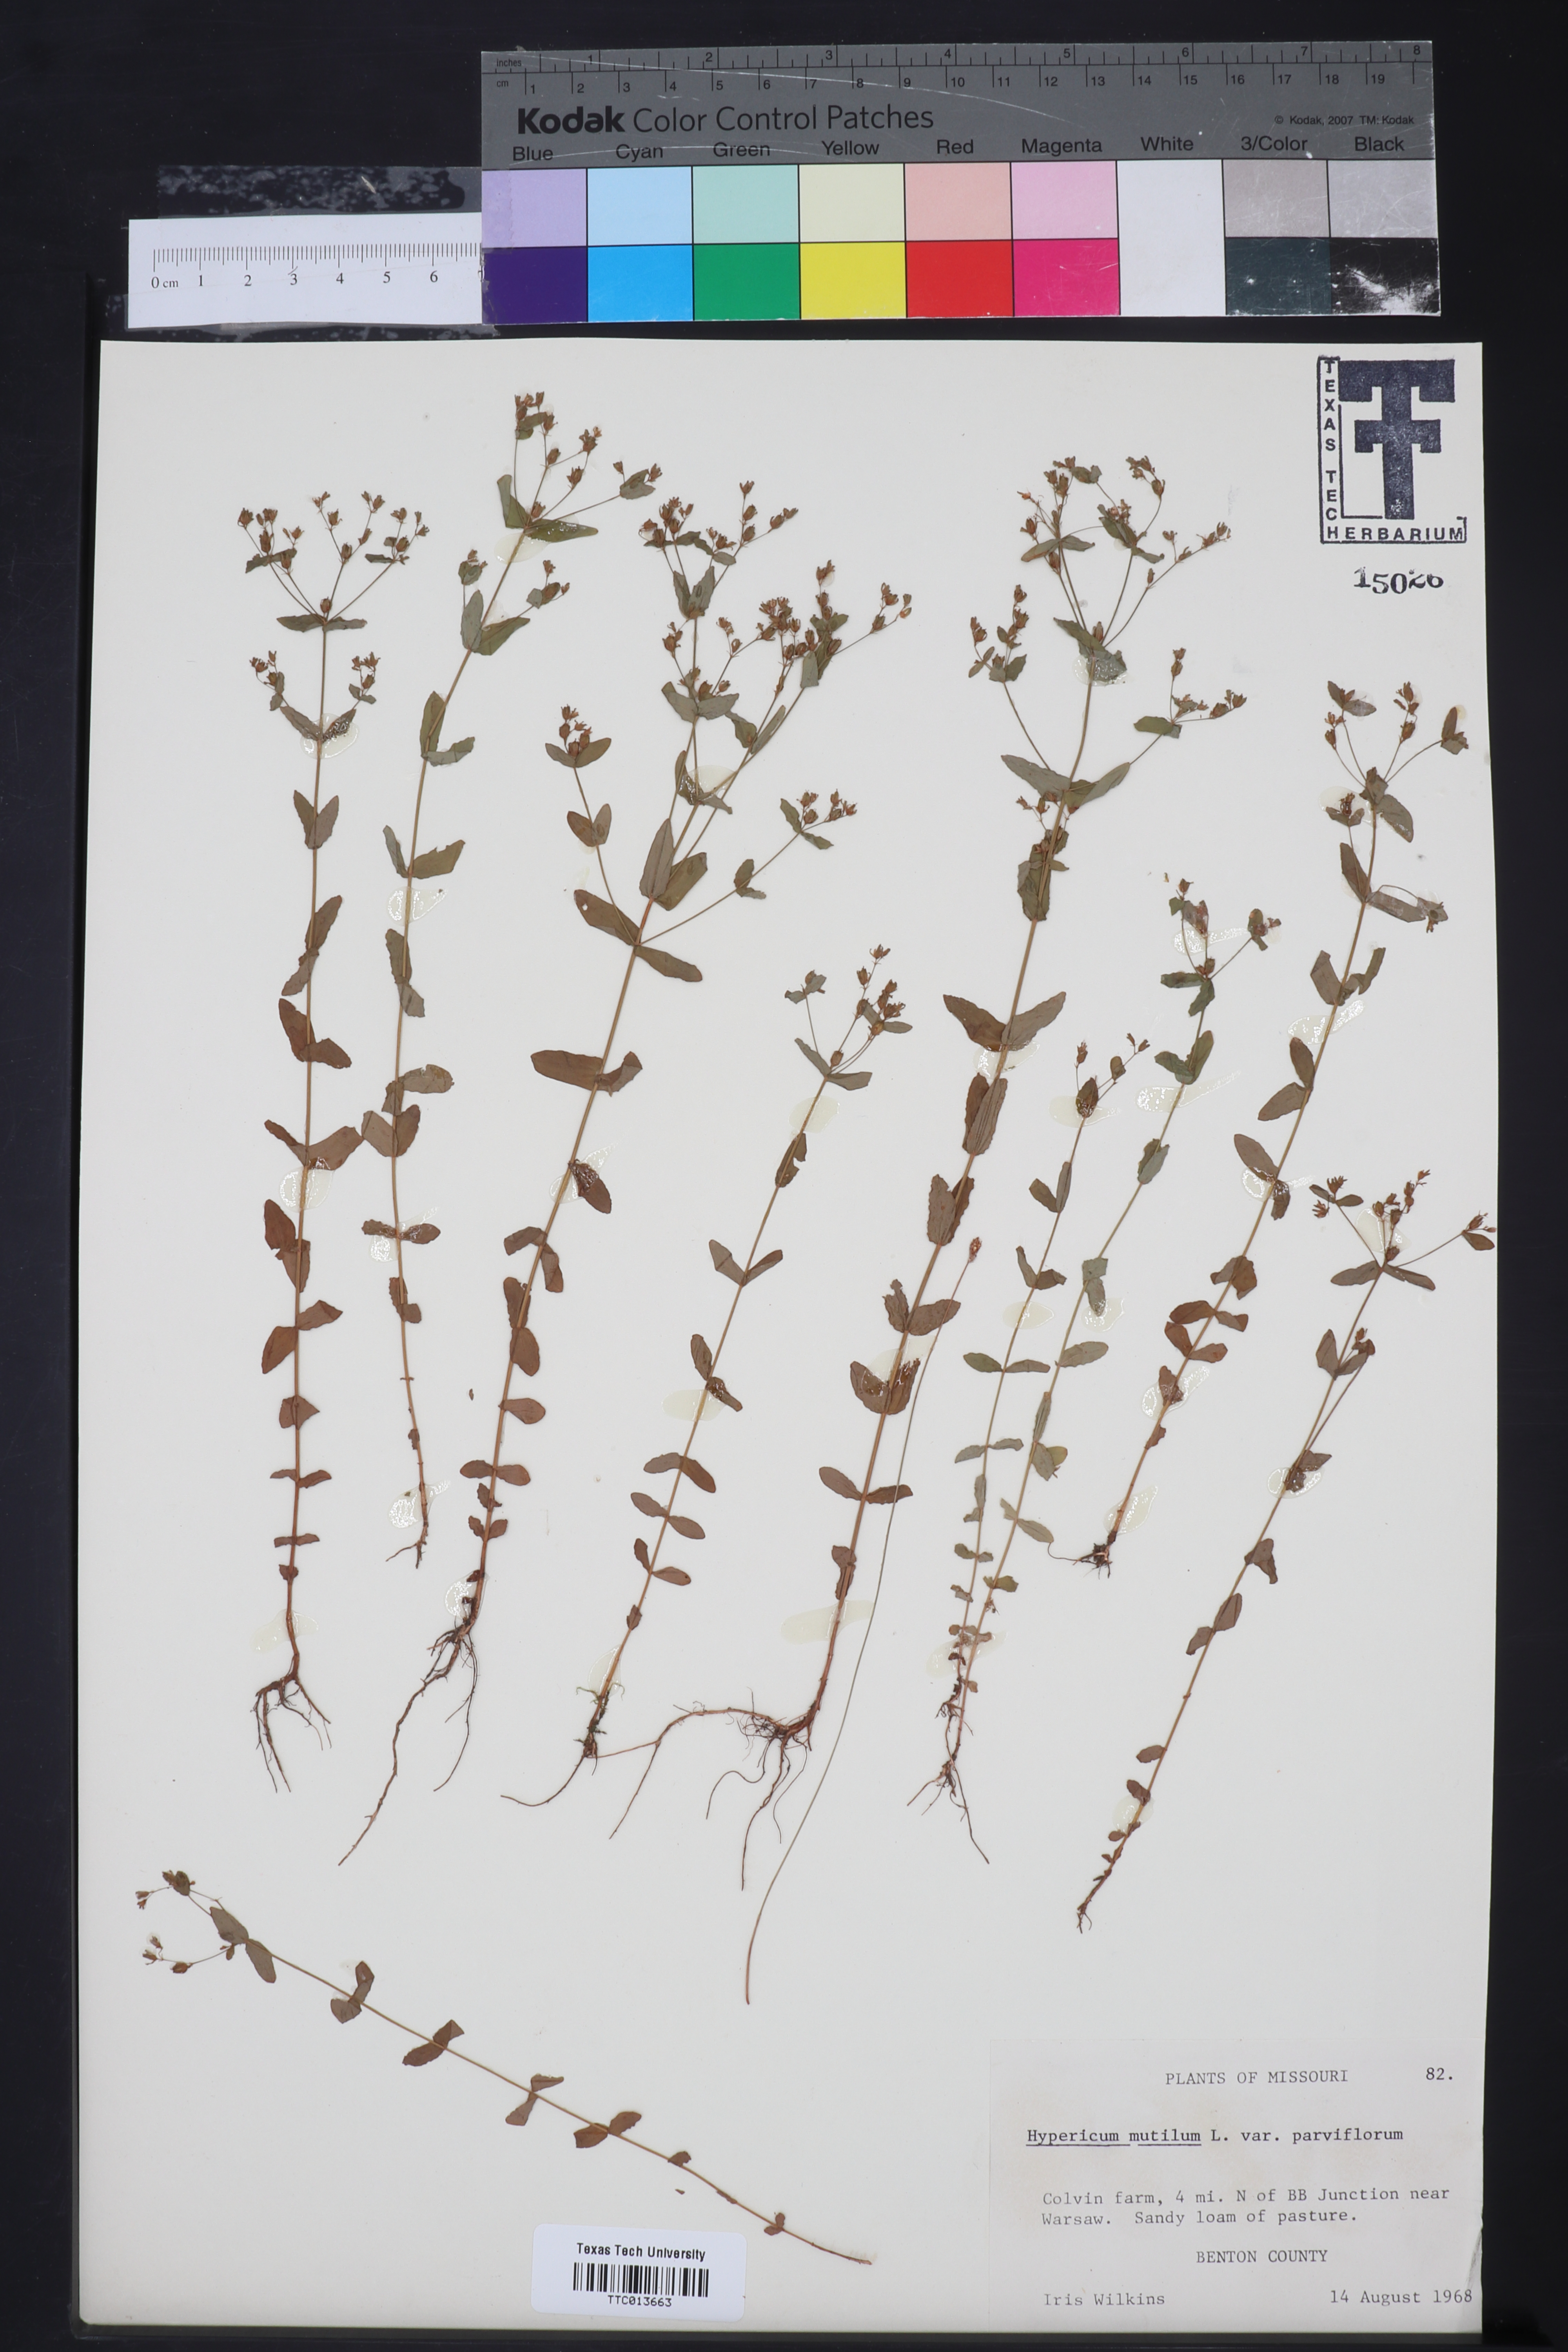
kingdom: Plantae
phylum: Tracheophyta
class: Magnoliopsida
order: Malpighiales
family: Hypericaceae
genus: Hypericum
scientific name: Hypericum mutilum
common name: Dwarf st. john's-wort
